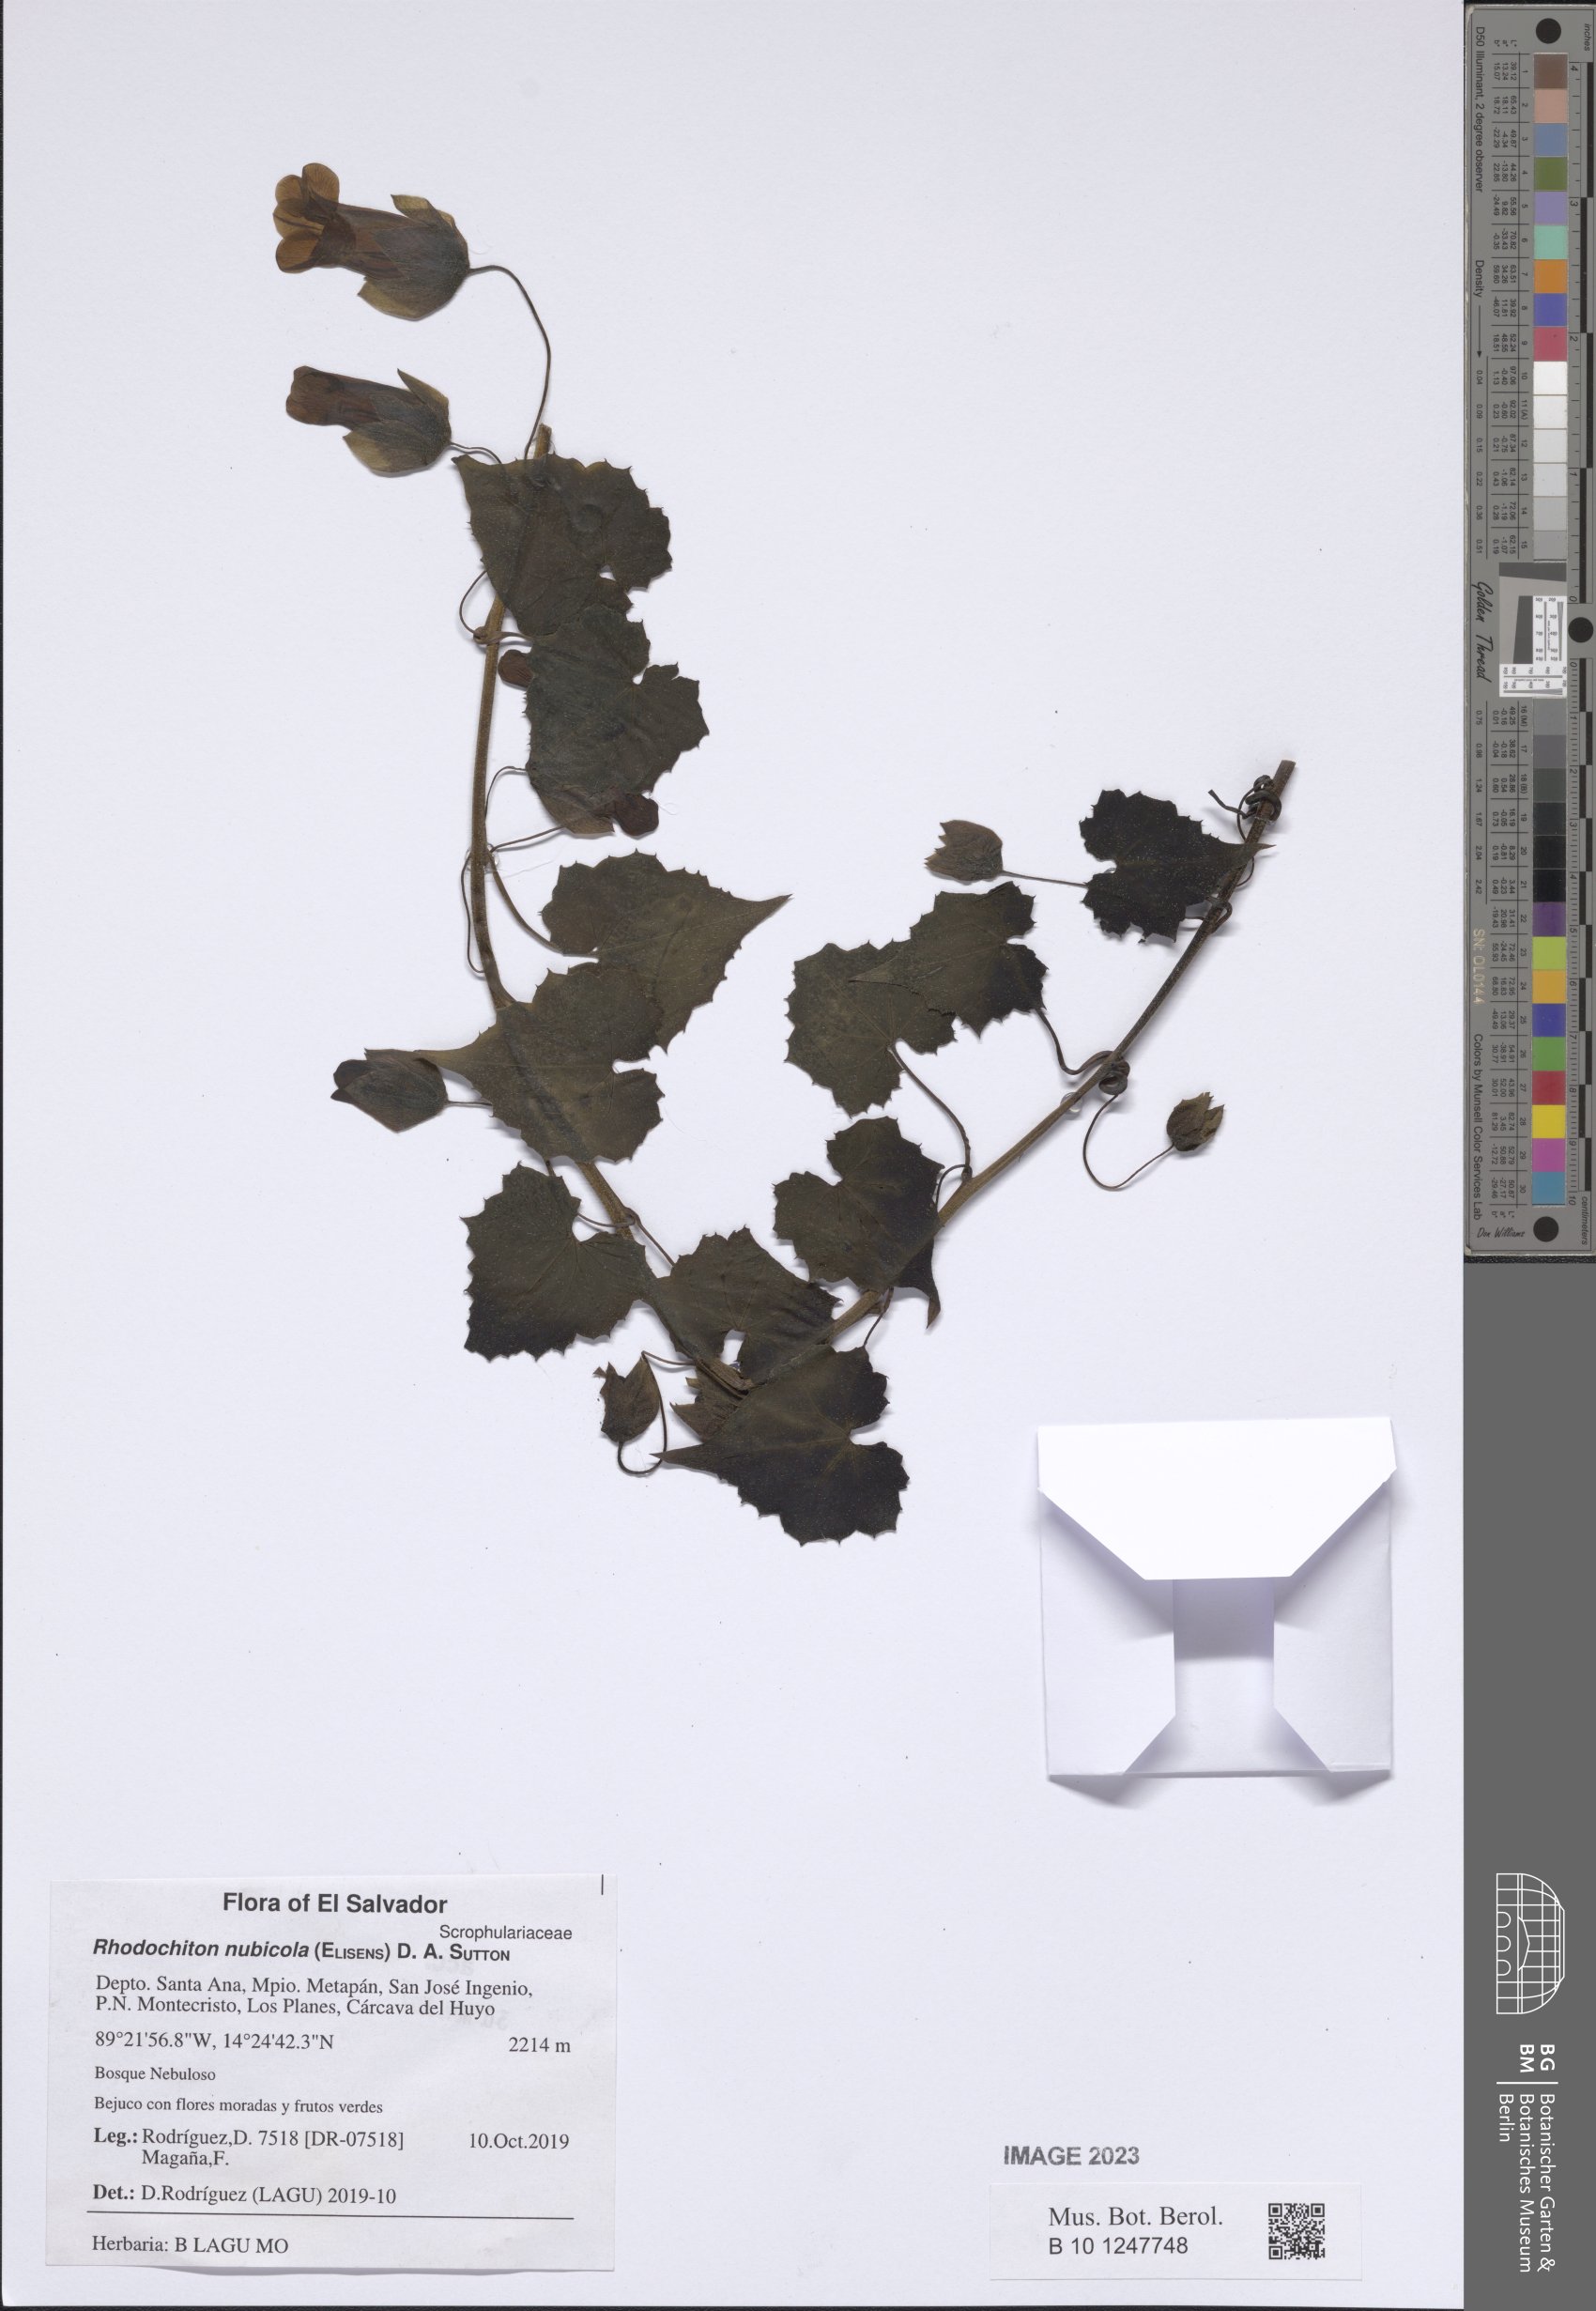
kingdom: Plantae
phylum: Tracheophyta
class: Magnoliopsida
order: Lamiales
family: Plantaginaceae
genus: Rhodochiton
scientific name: Rhodochiton nubicola
